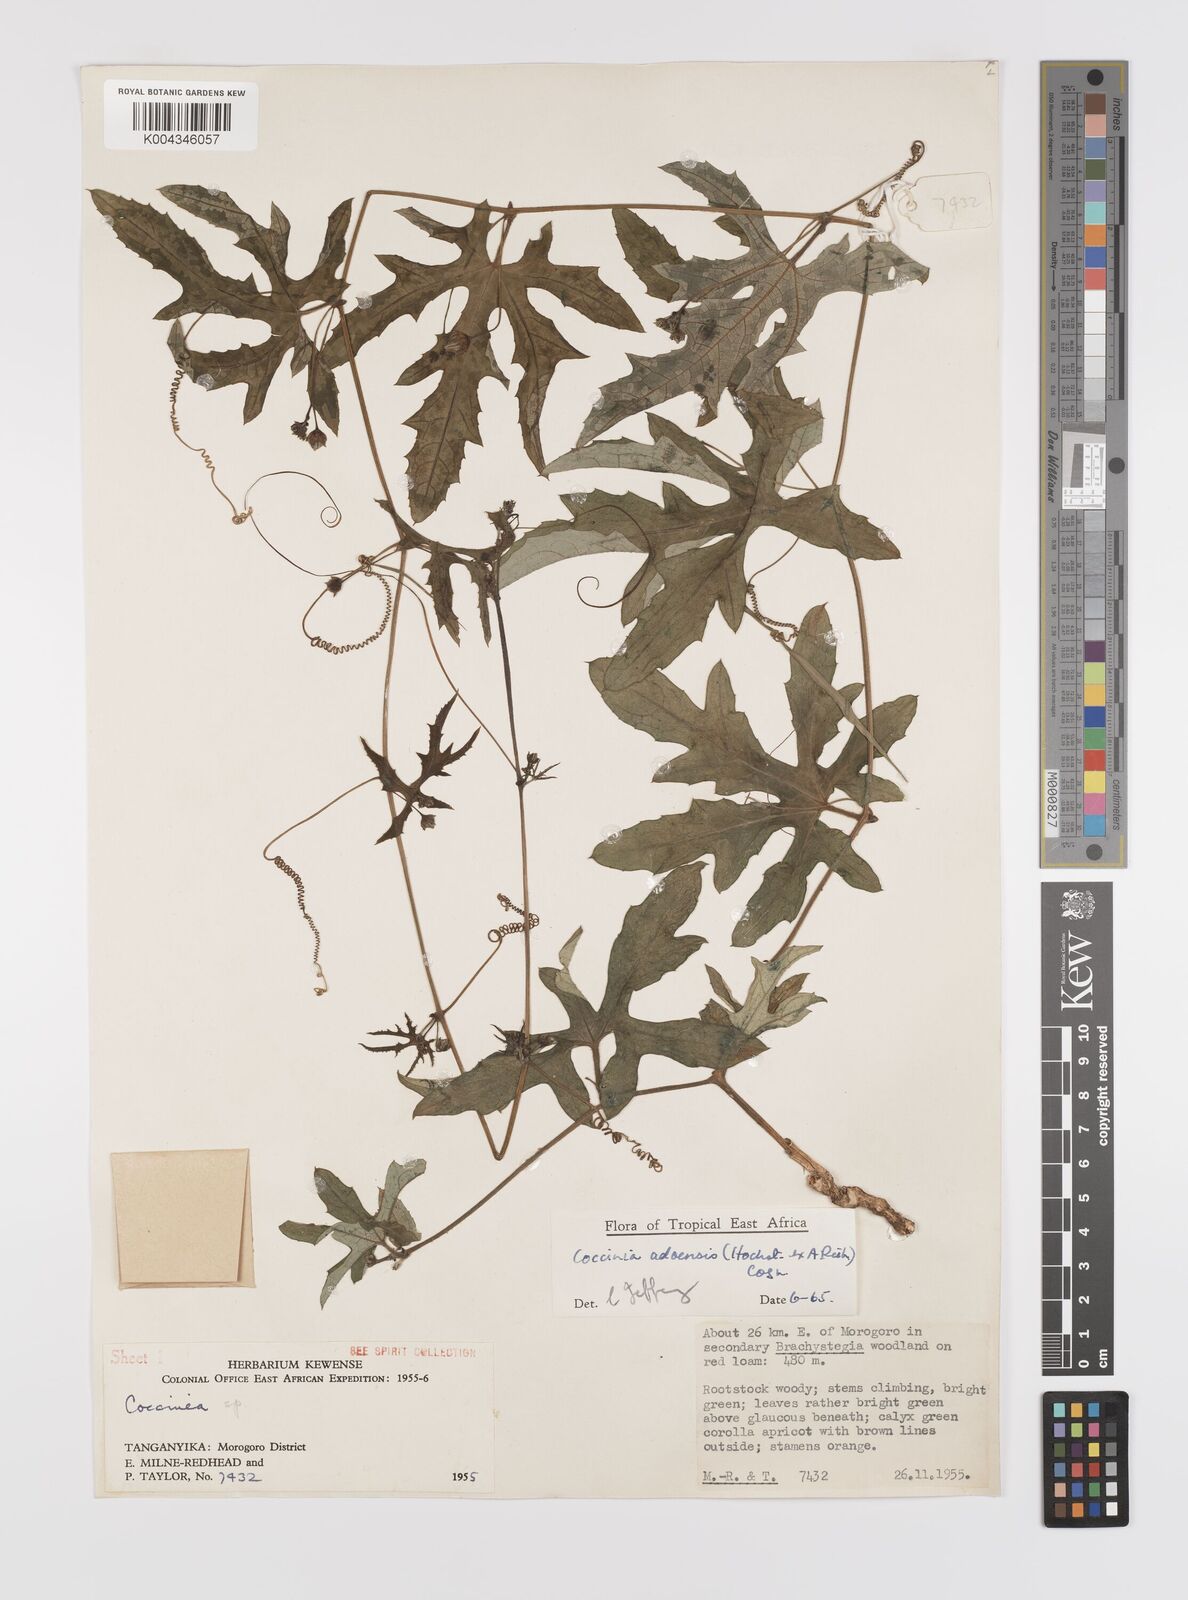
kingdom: Plantae
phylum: Tracheophyta
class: Magnoliopsida
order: Cucurbitales
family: Cucurbitaceae
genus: Coccinia
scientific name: Coccinia adoensis
